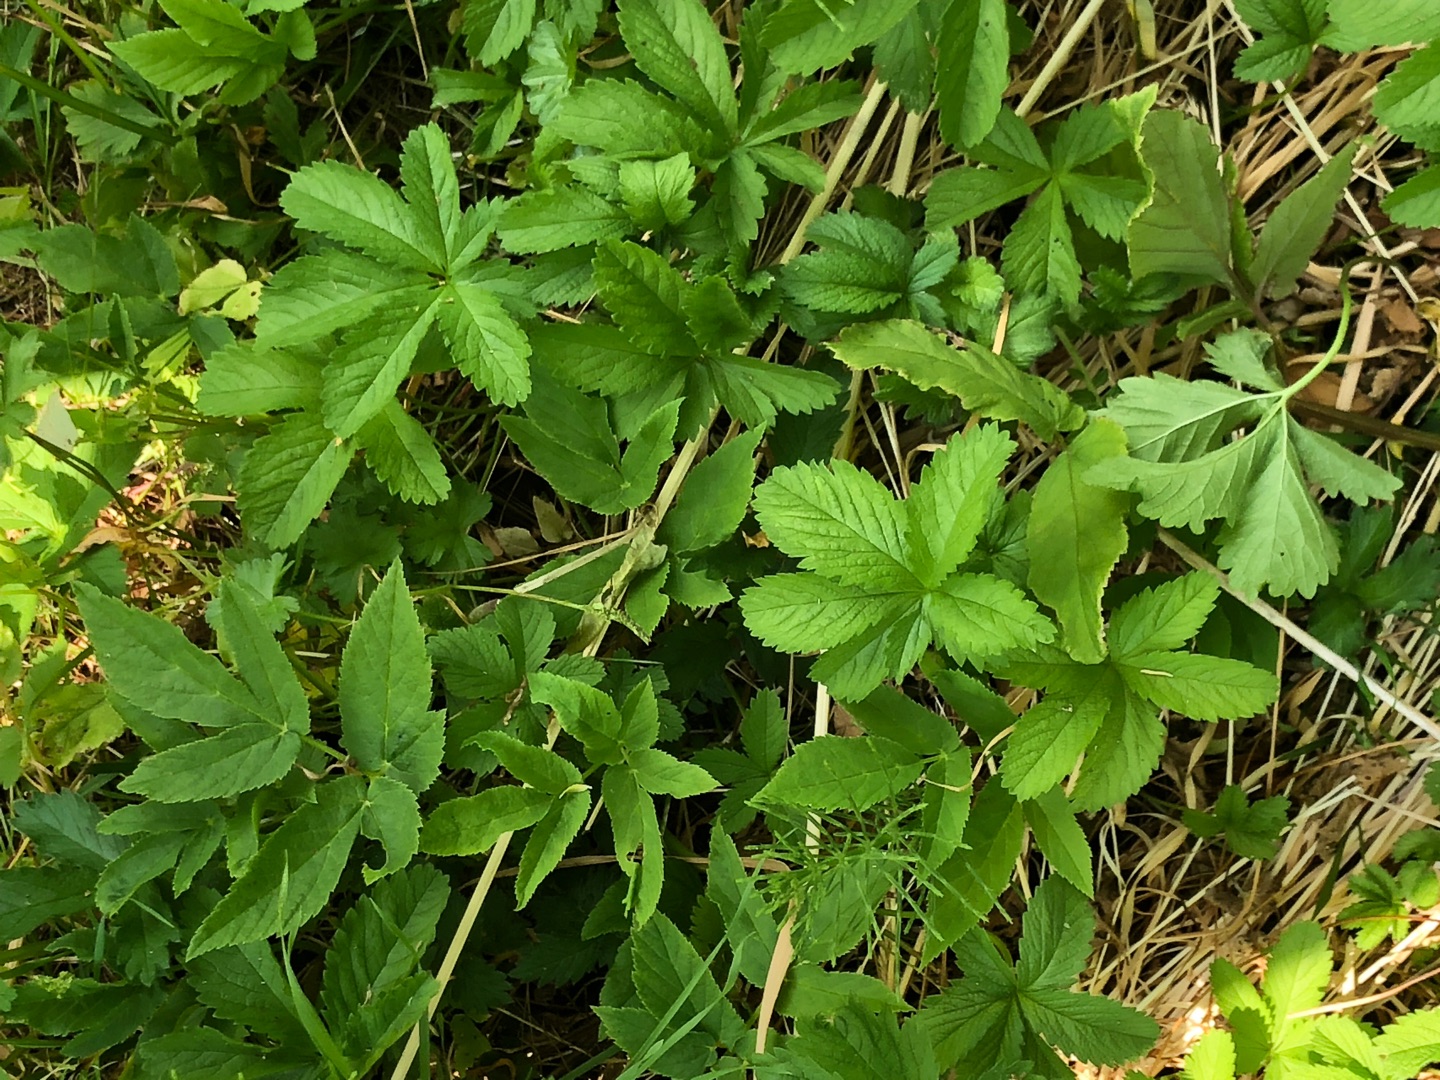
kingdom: Plantae
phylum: Tracheophyta
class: Magnoliopsida
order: Rosales
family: Rosaceae
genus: Potentilla
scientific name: Potentilla reptans
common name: Krybende potentil
